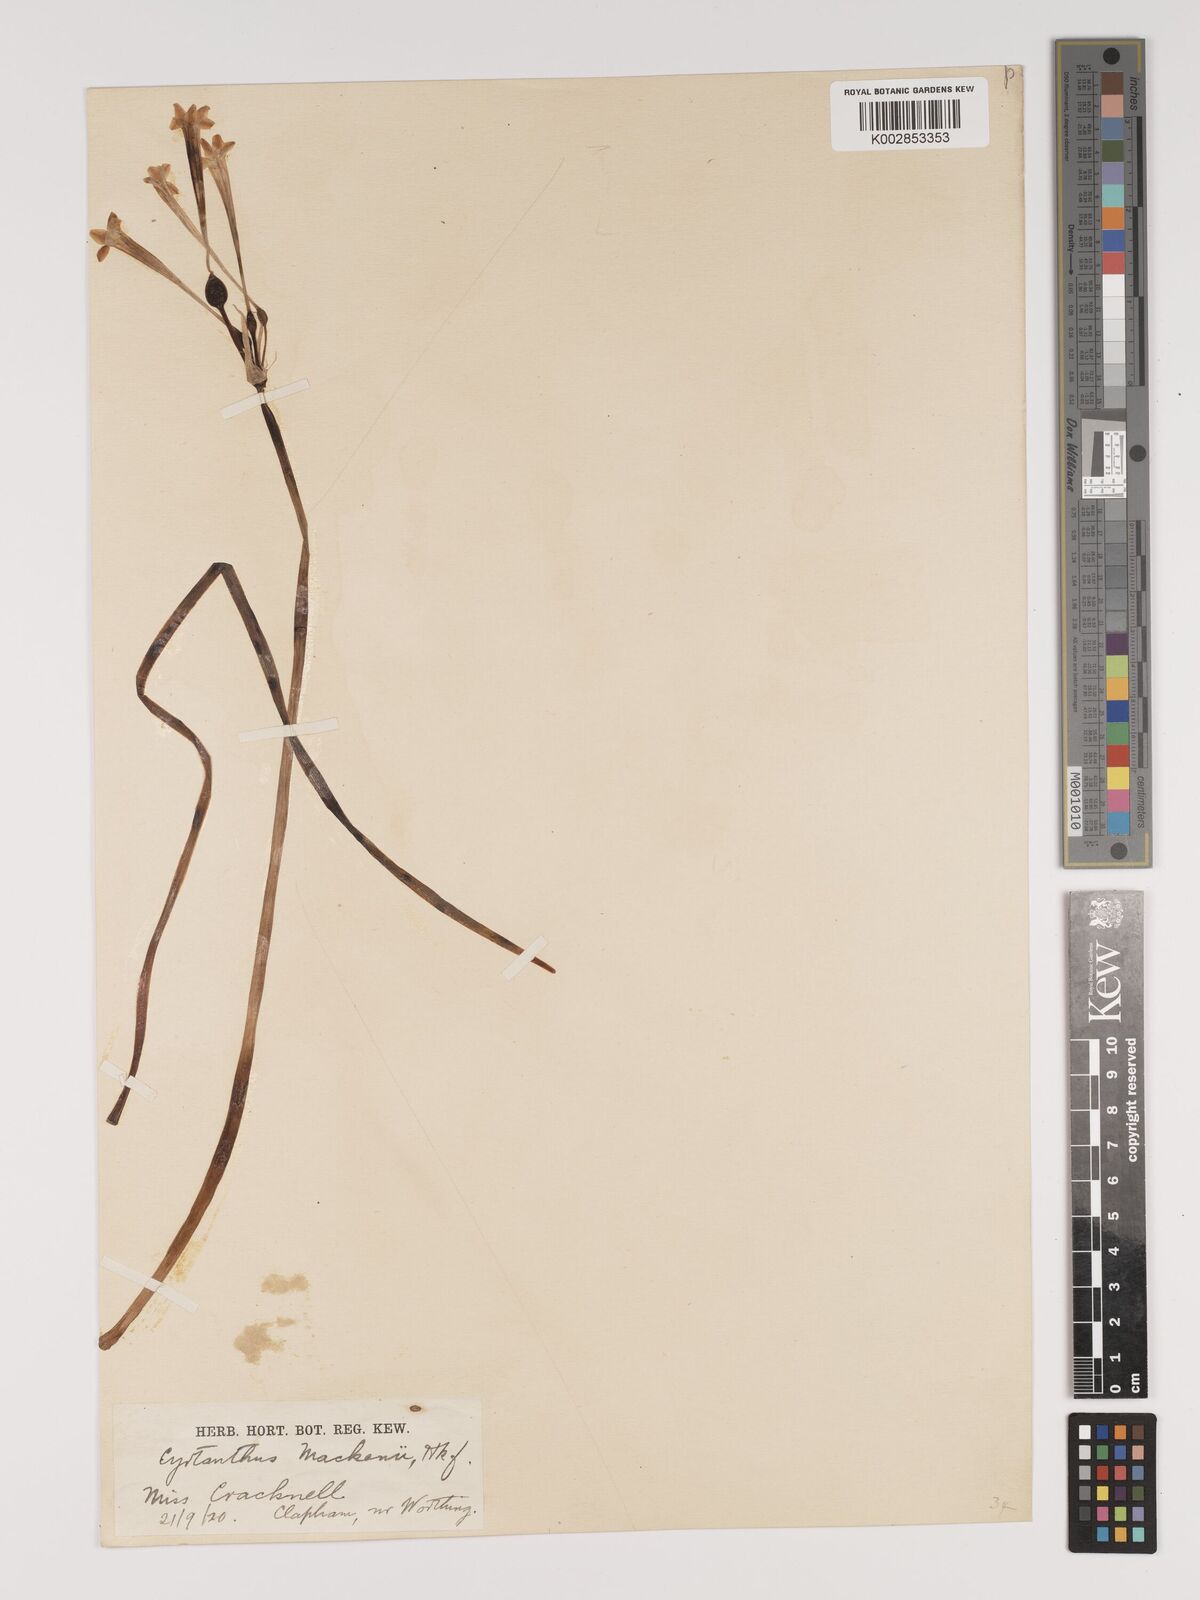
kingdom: Plantae
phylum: Tracheophyta
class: Liliopsida
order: Asparagales
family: Amaryllidaceae
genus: Cyrtanthus
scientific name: Cyrtanthus mackenii
